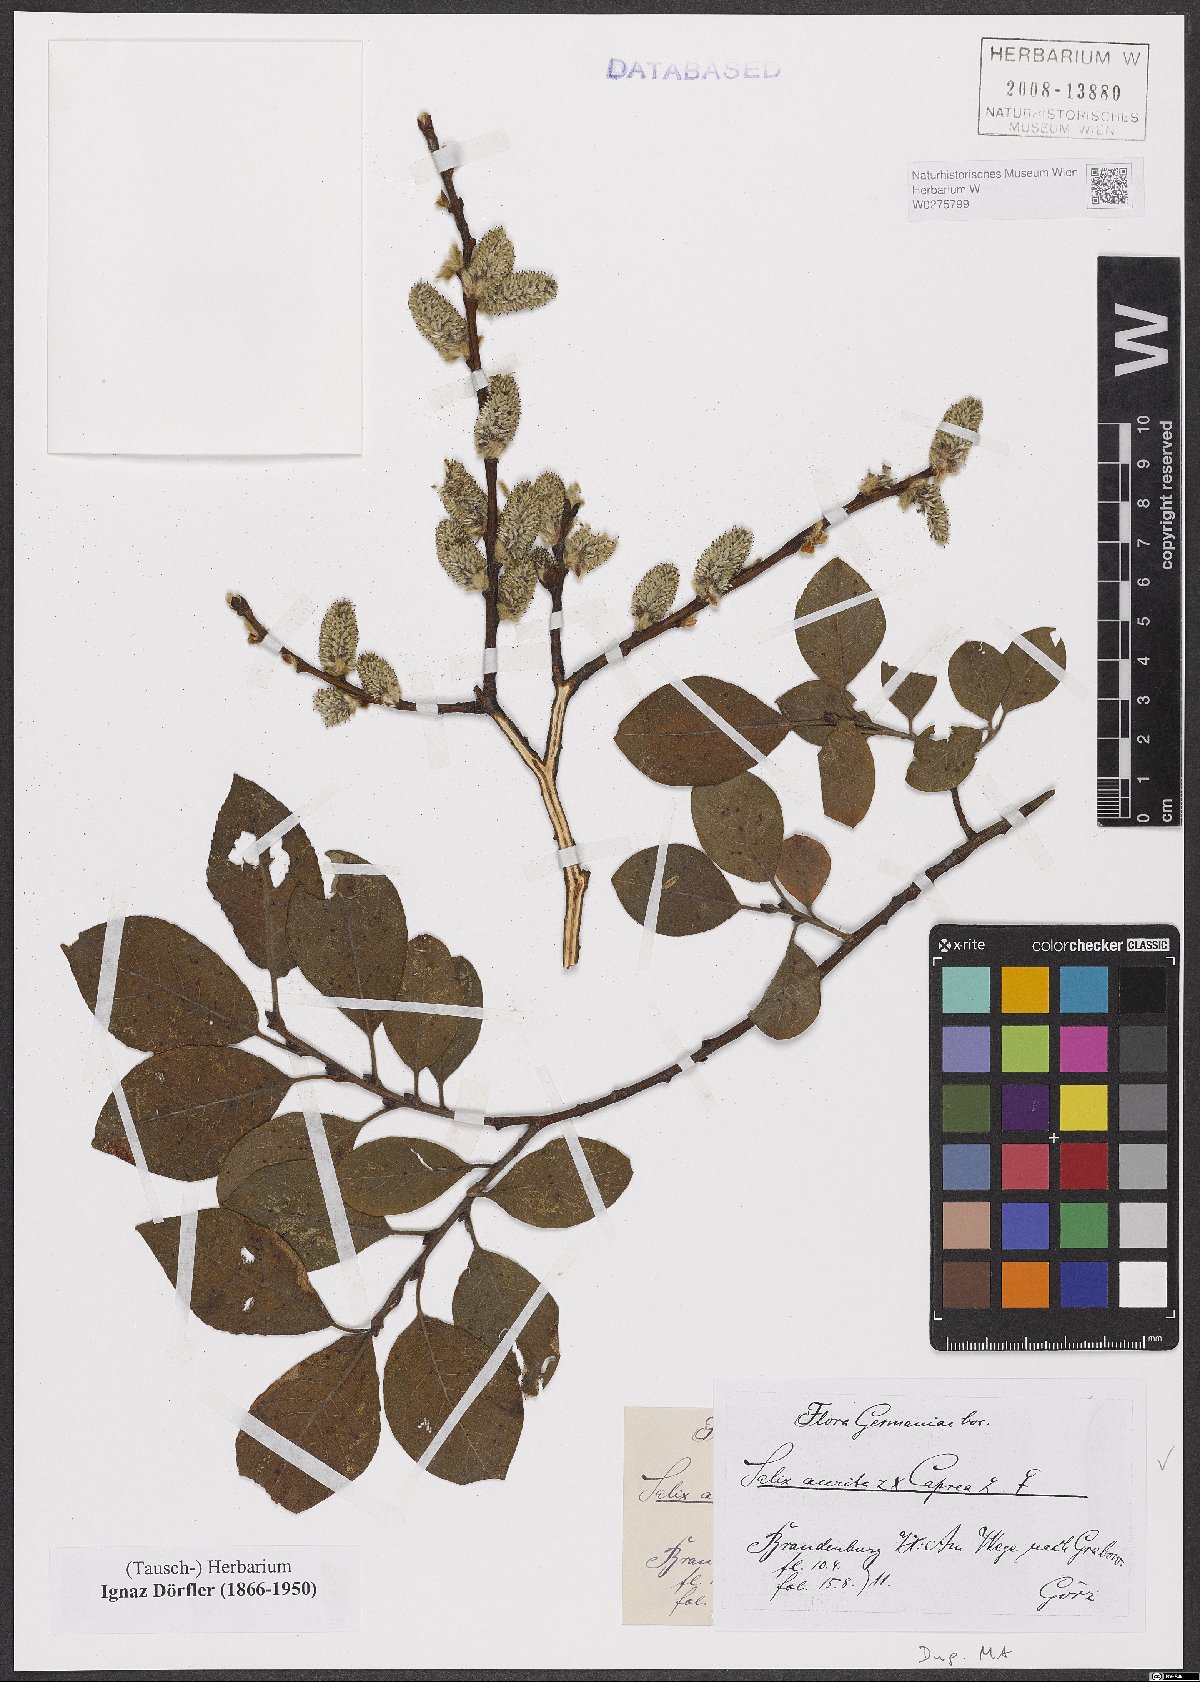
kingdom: Plantae
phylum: Tracheophyta
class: Magnoliopsida
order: Malpighiales
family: Salicaceae
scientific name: Salicaceae
